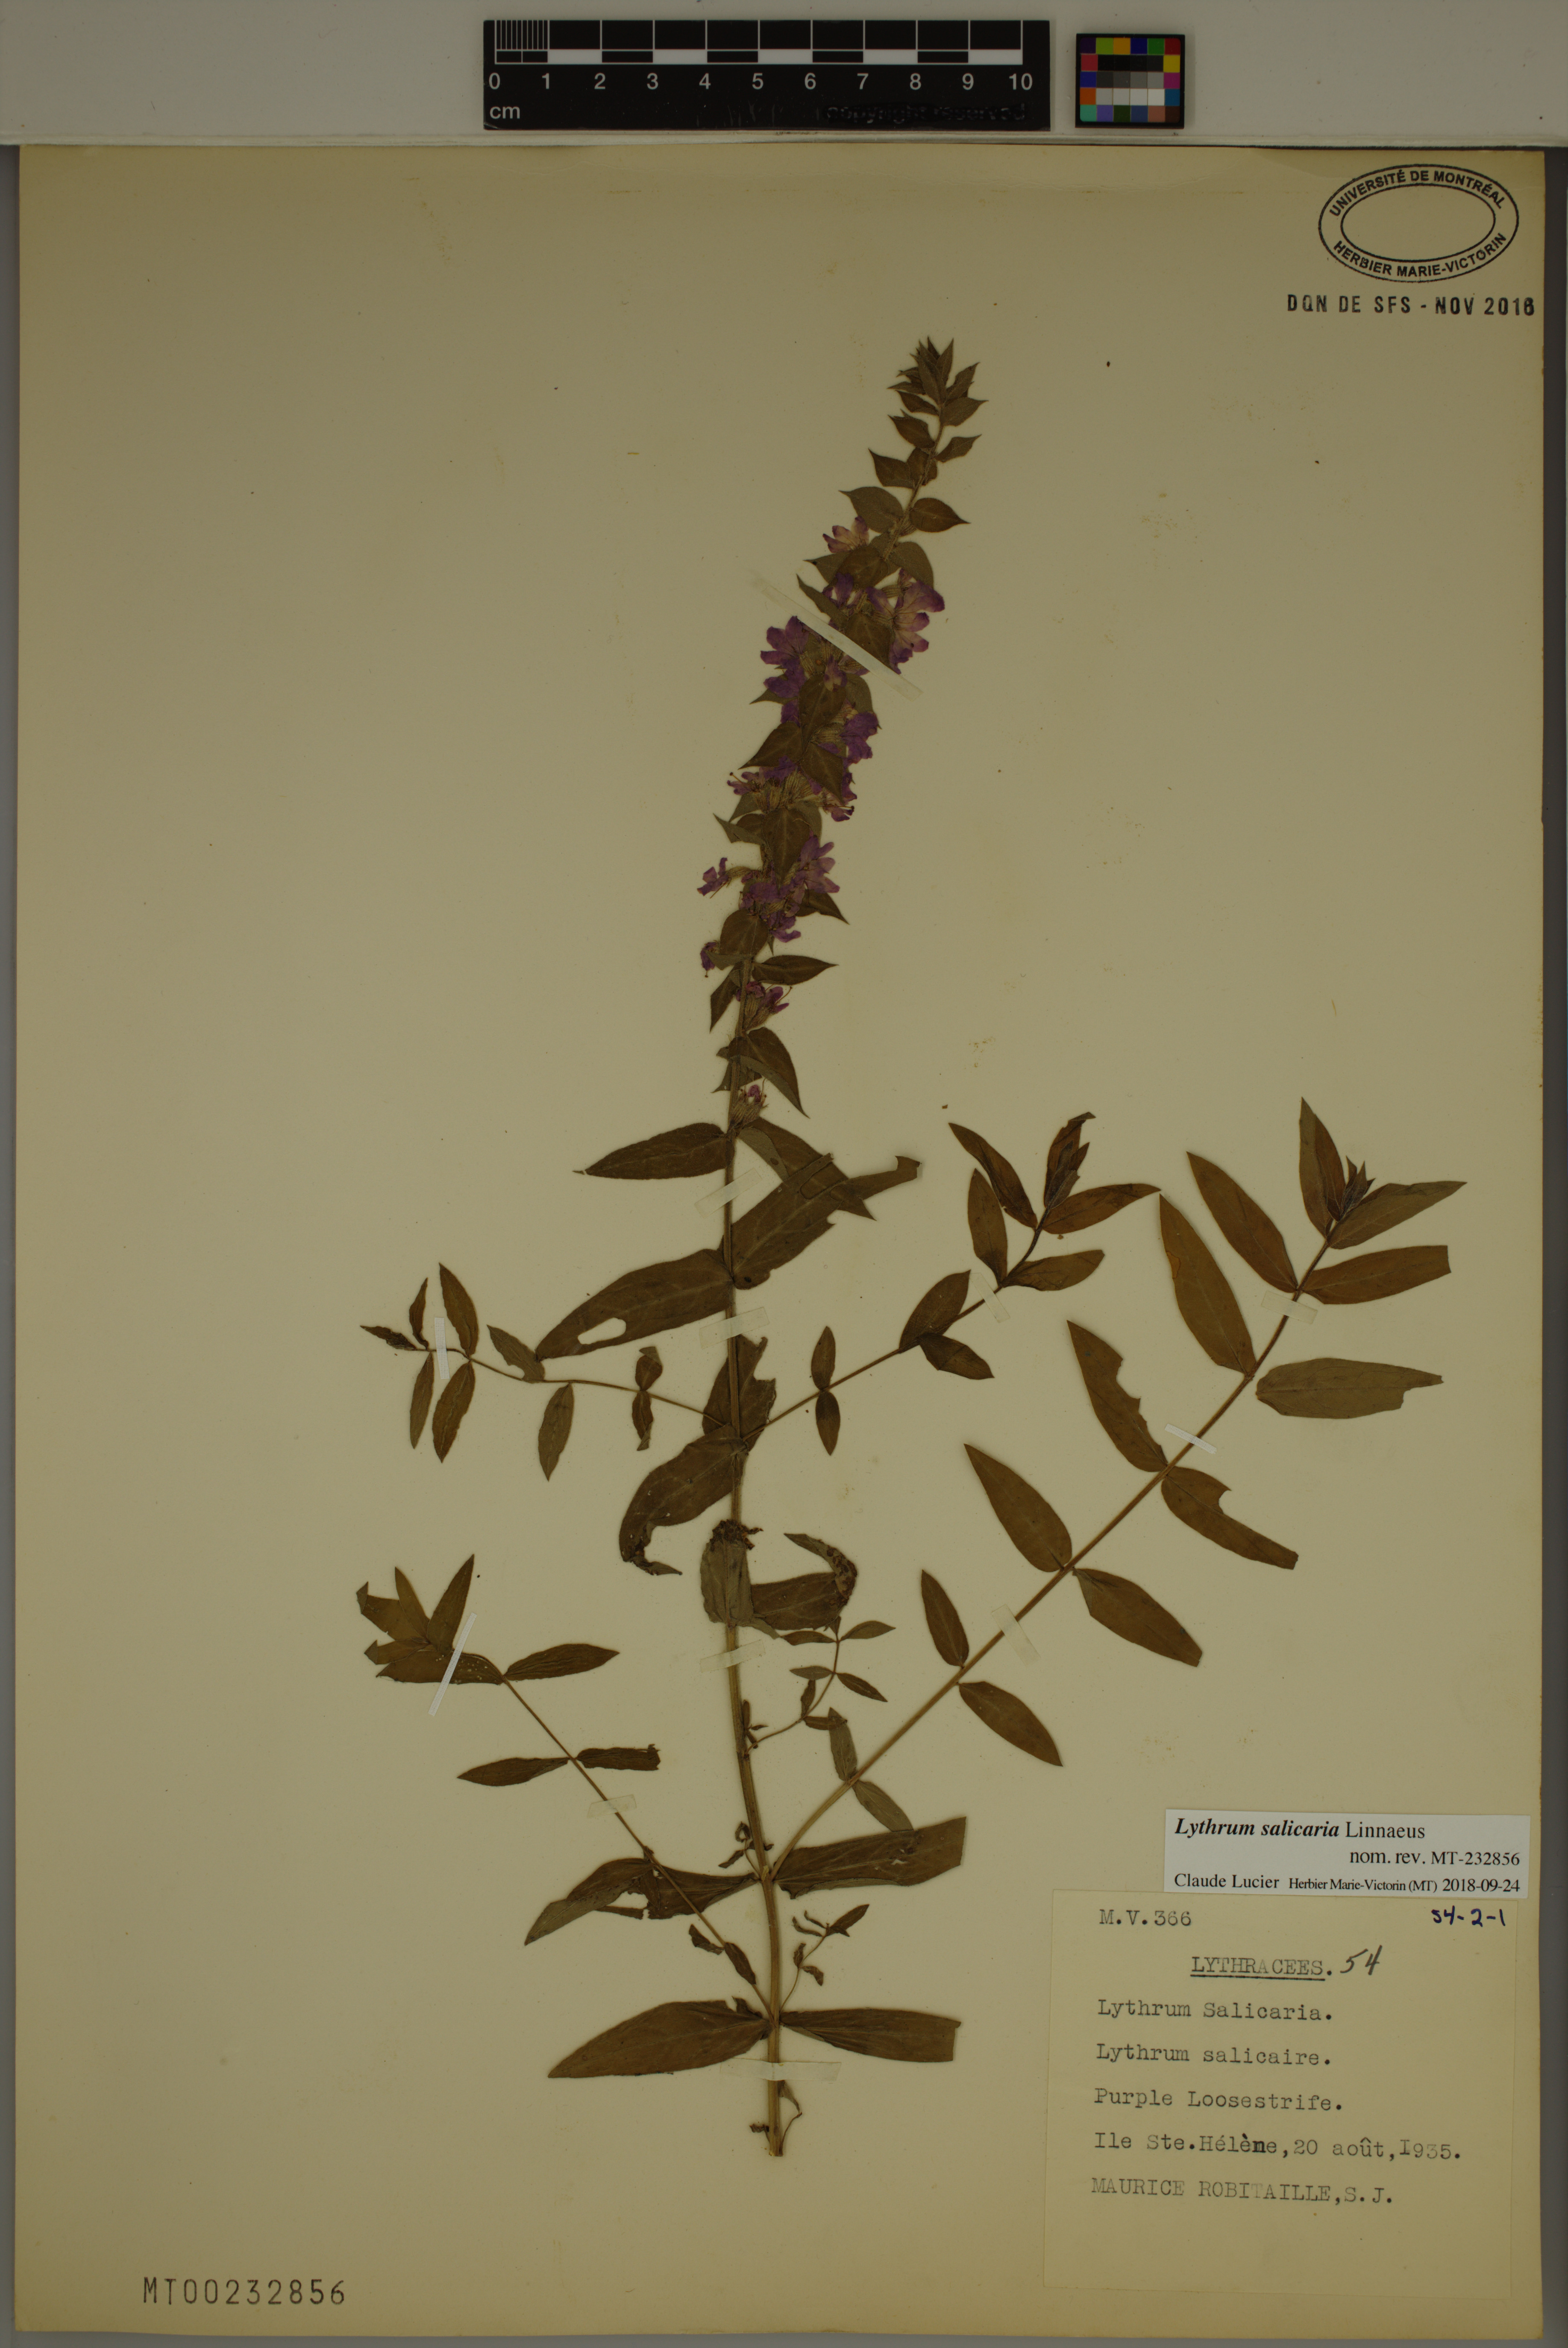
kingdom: Plantae
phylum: Tracheophyta
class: Magnoliopsida
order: Myrtales
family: Lythraceae
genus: Lythrum
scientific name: Lythrum salicaria
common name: Purple loosestrife
